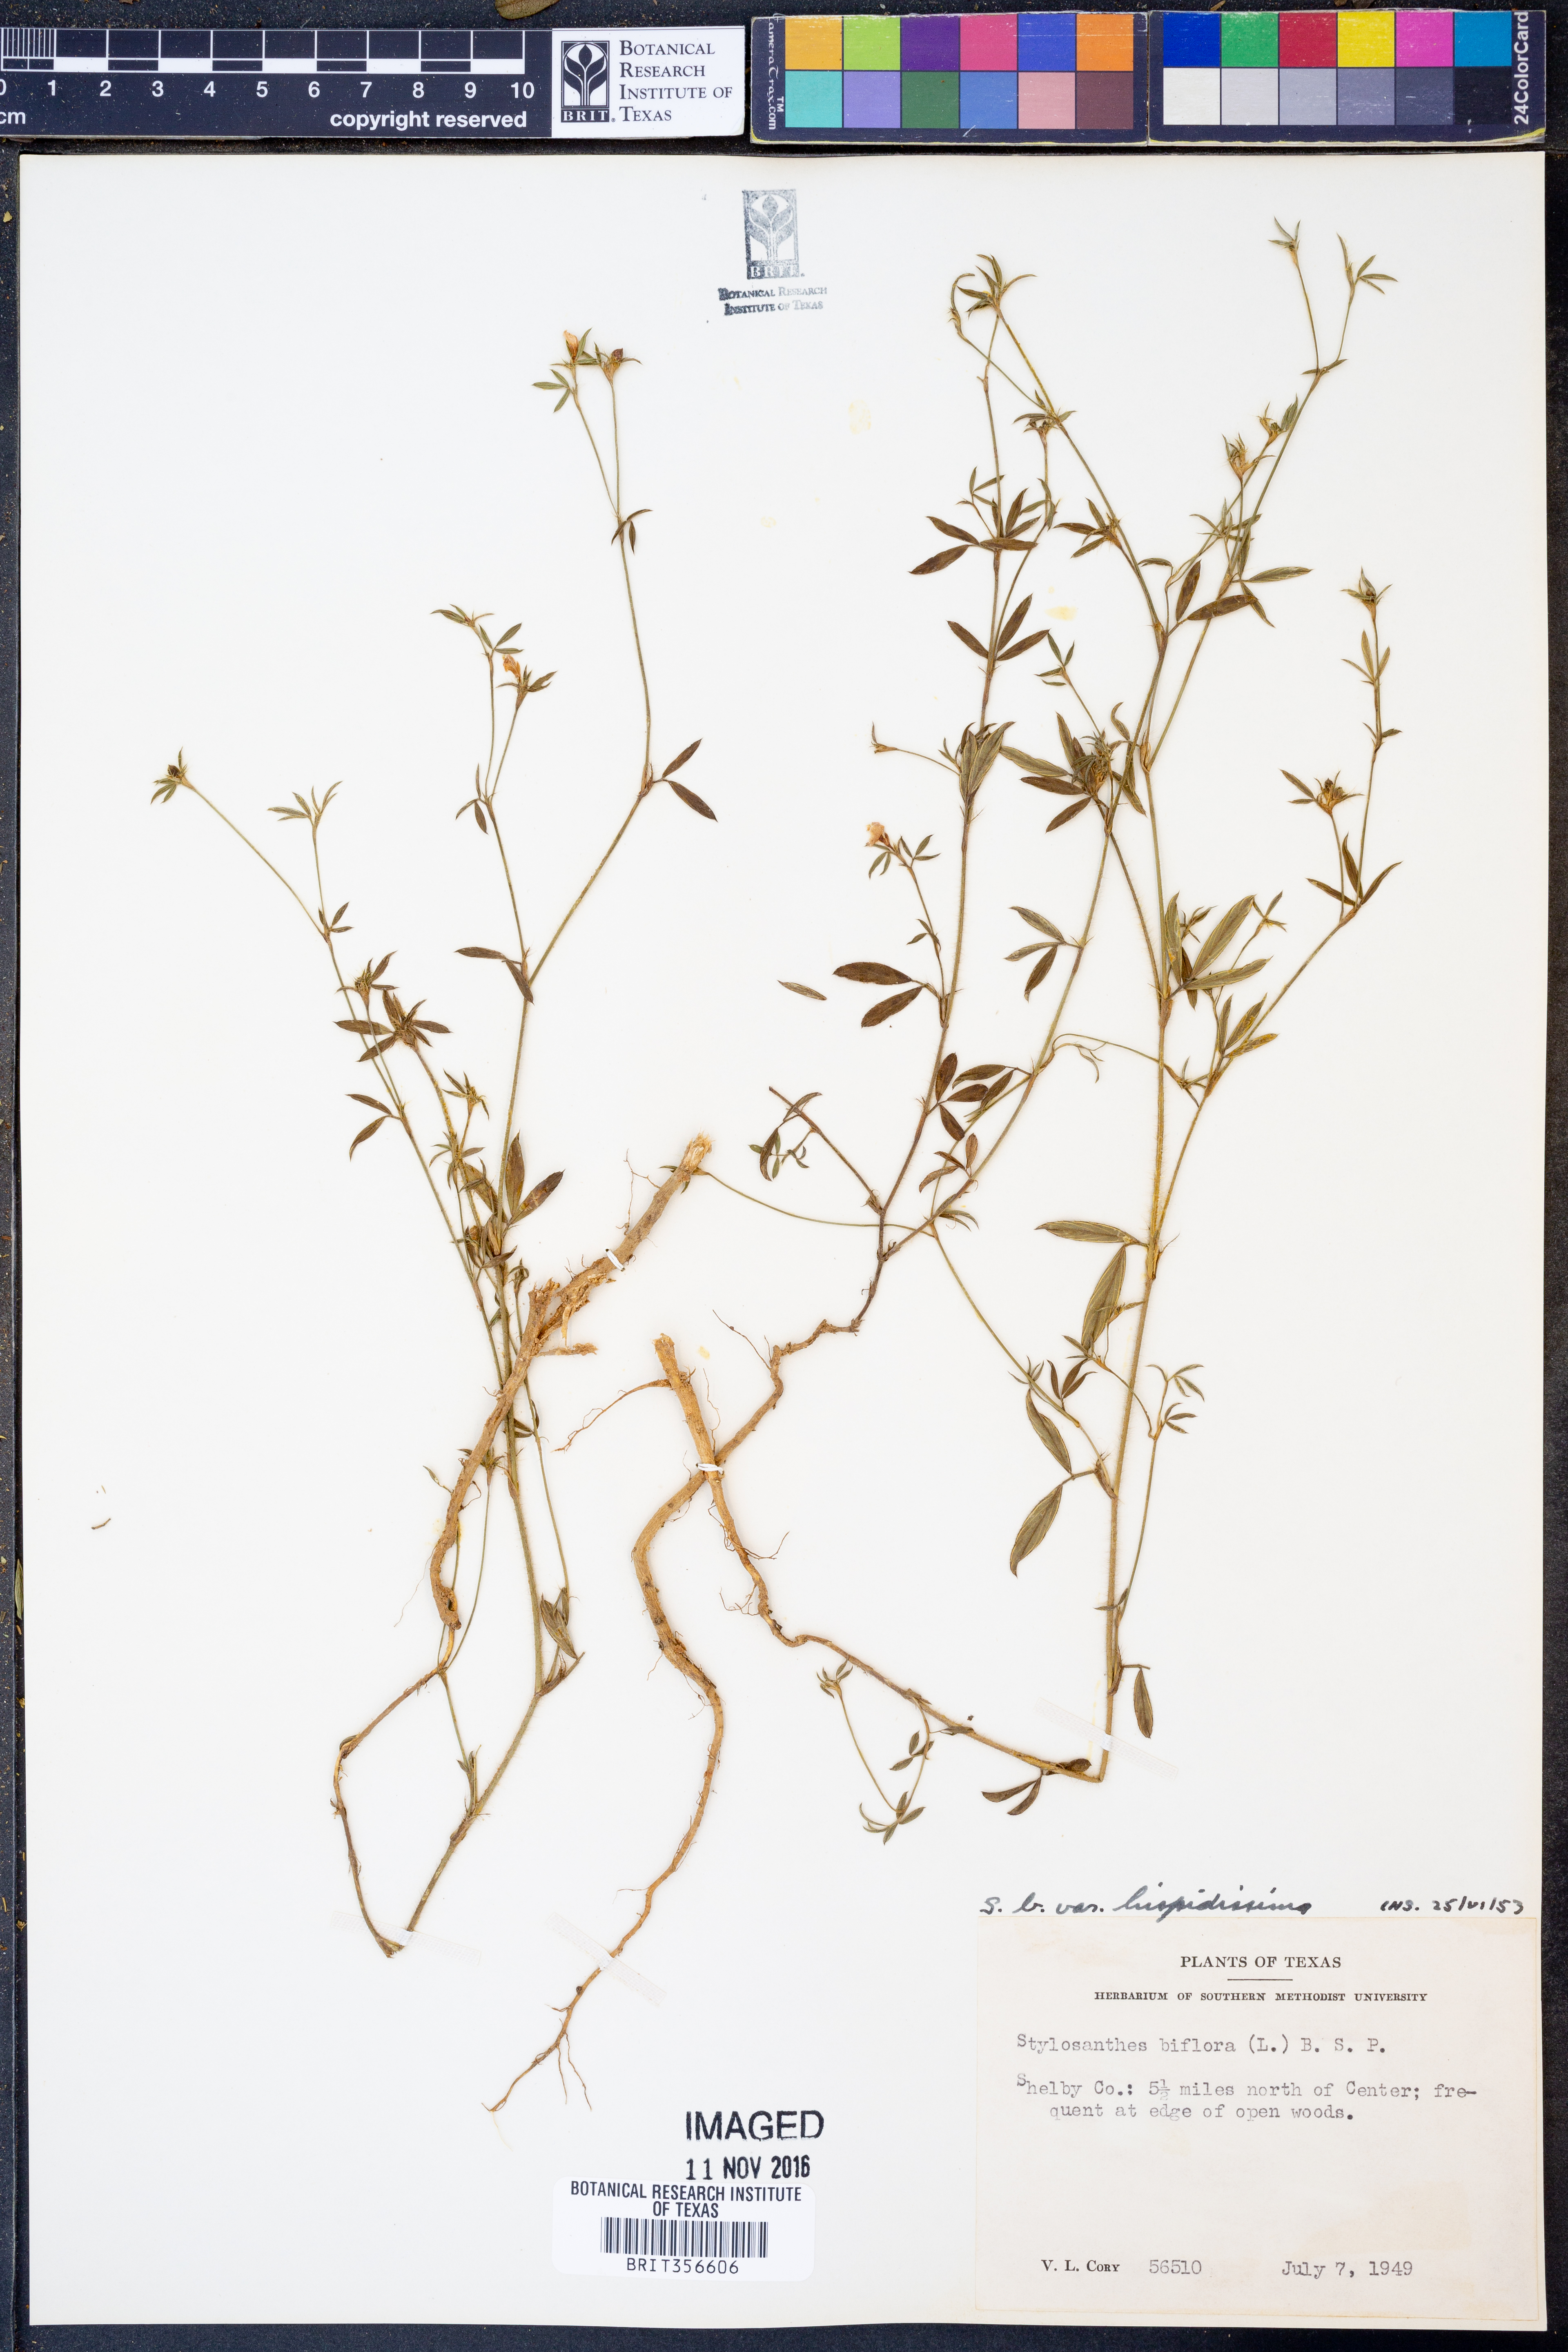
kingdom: Plantae
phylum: Tracheophyta
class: Magnoliopsida
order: Fabales
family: Fabaceae
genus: Stylosanthes
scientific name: Stylosanthes biflora
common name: Two-flower pencil-flower
